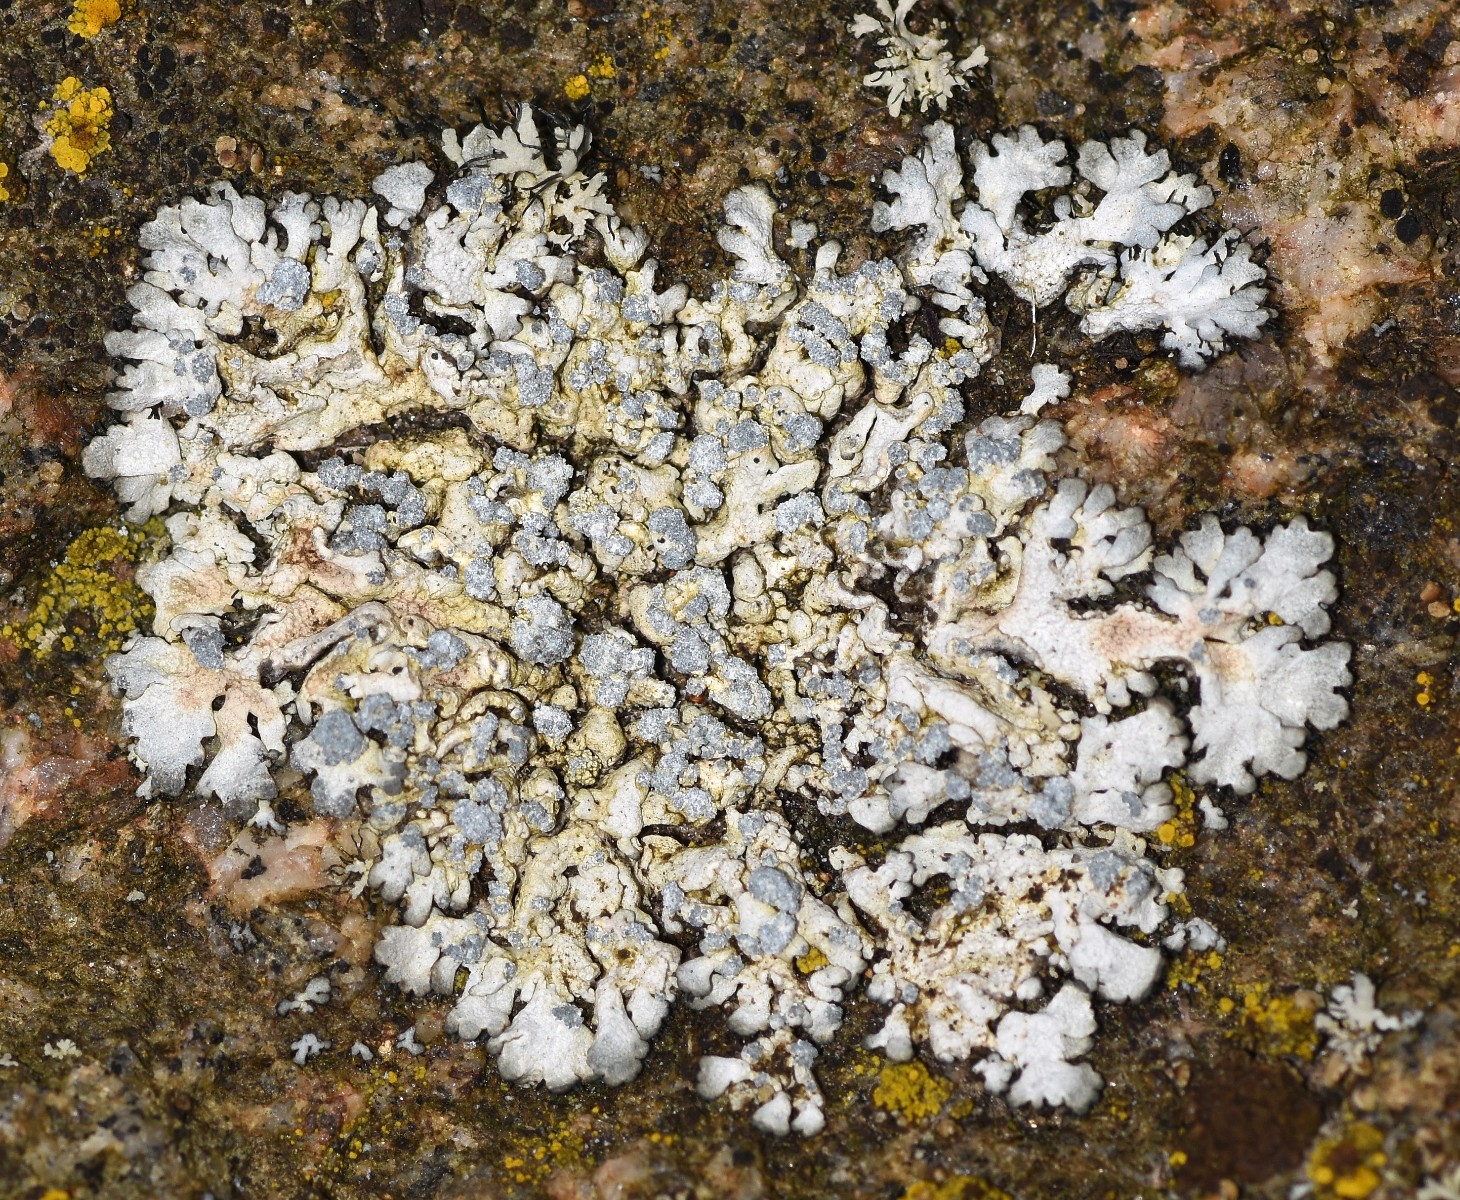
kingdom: Fungi
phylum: Ascomycota
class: Lecanoromycetes
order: Caliciales
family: Physciaceae
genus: Physcia
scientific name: Physcia caesia
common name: blågrå rosetlav
